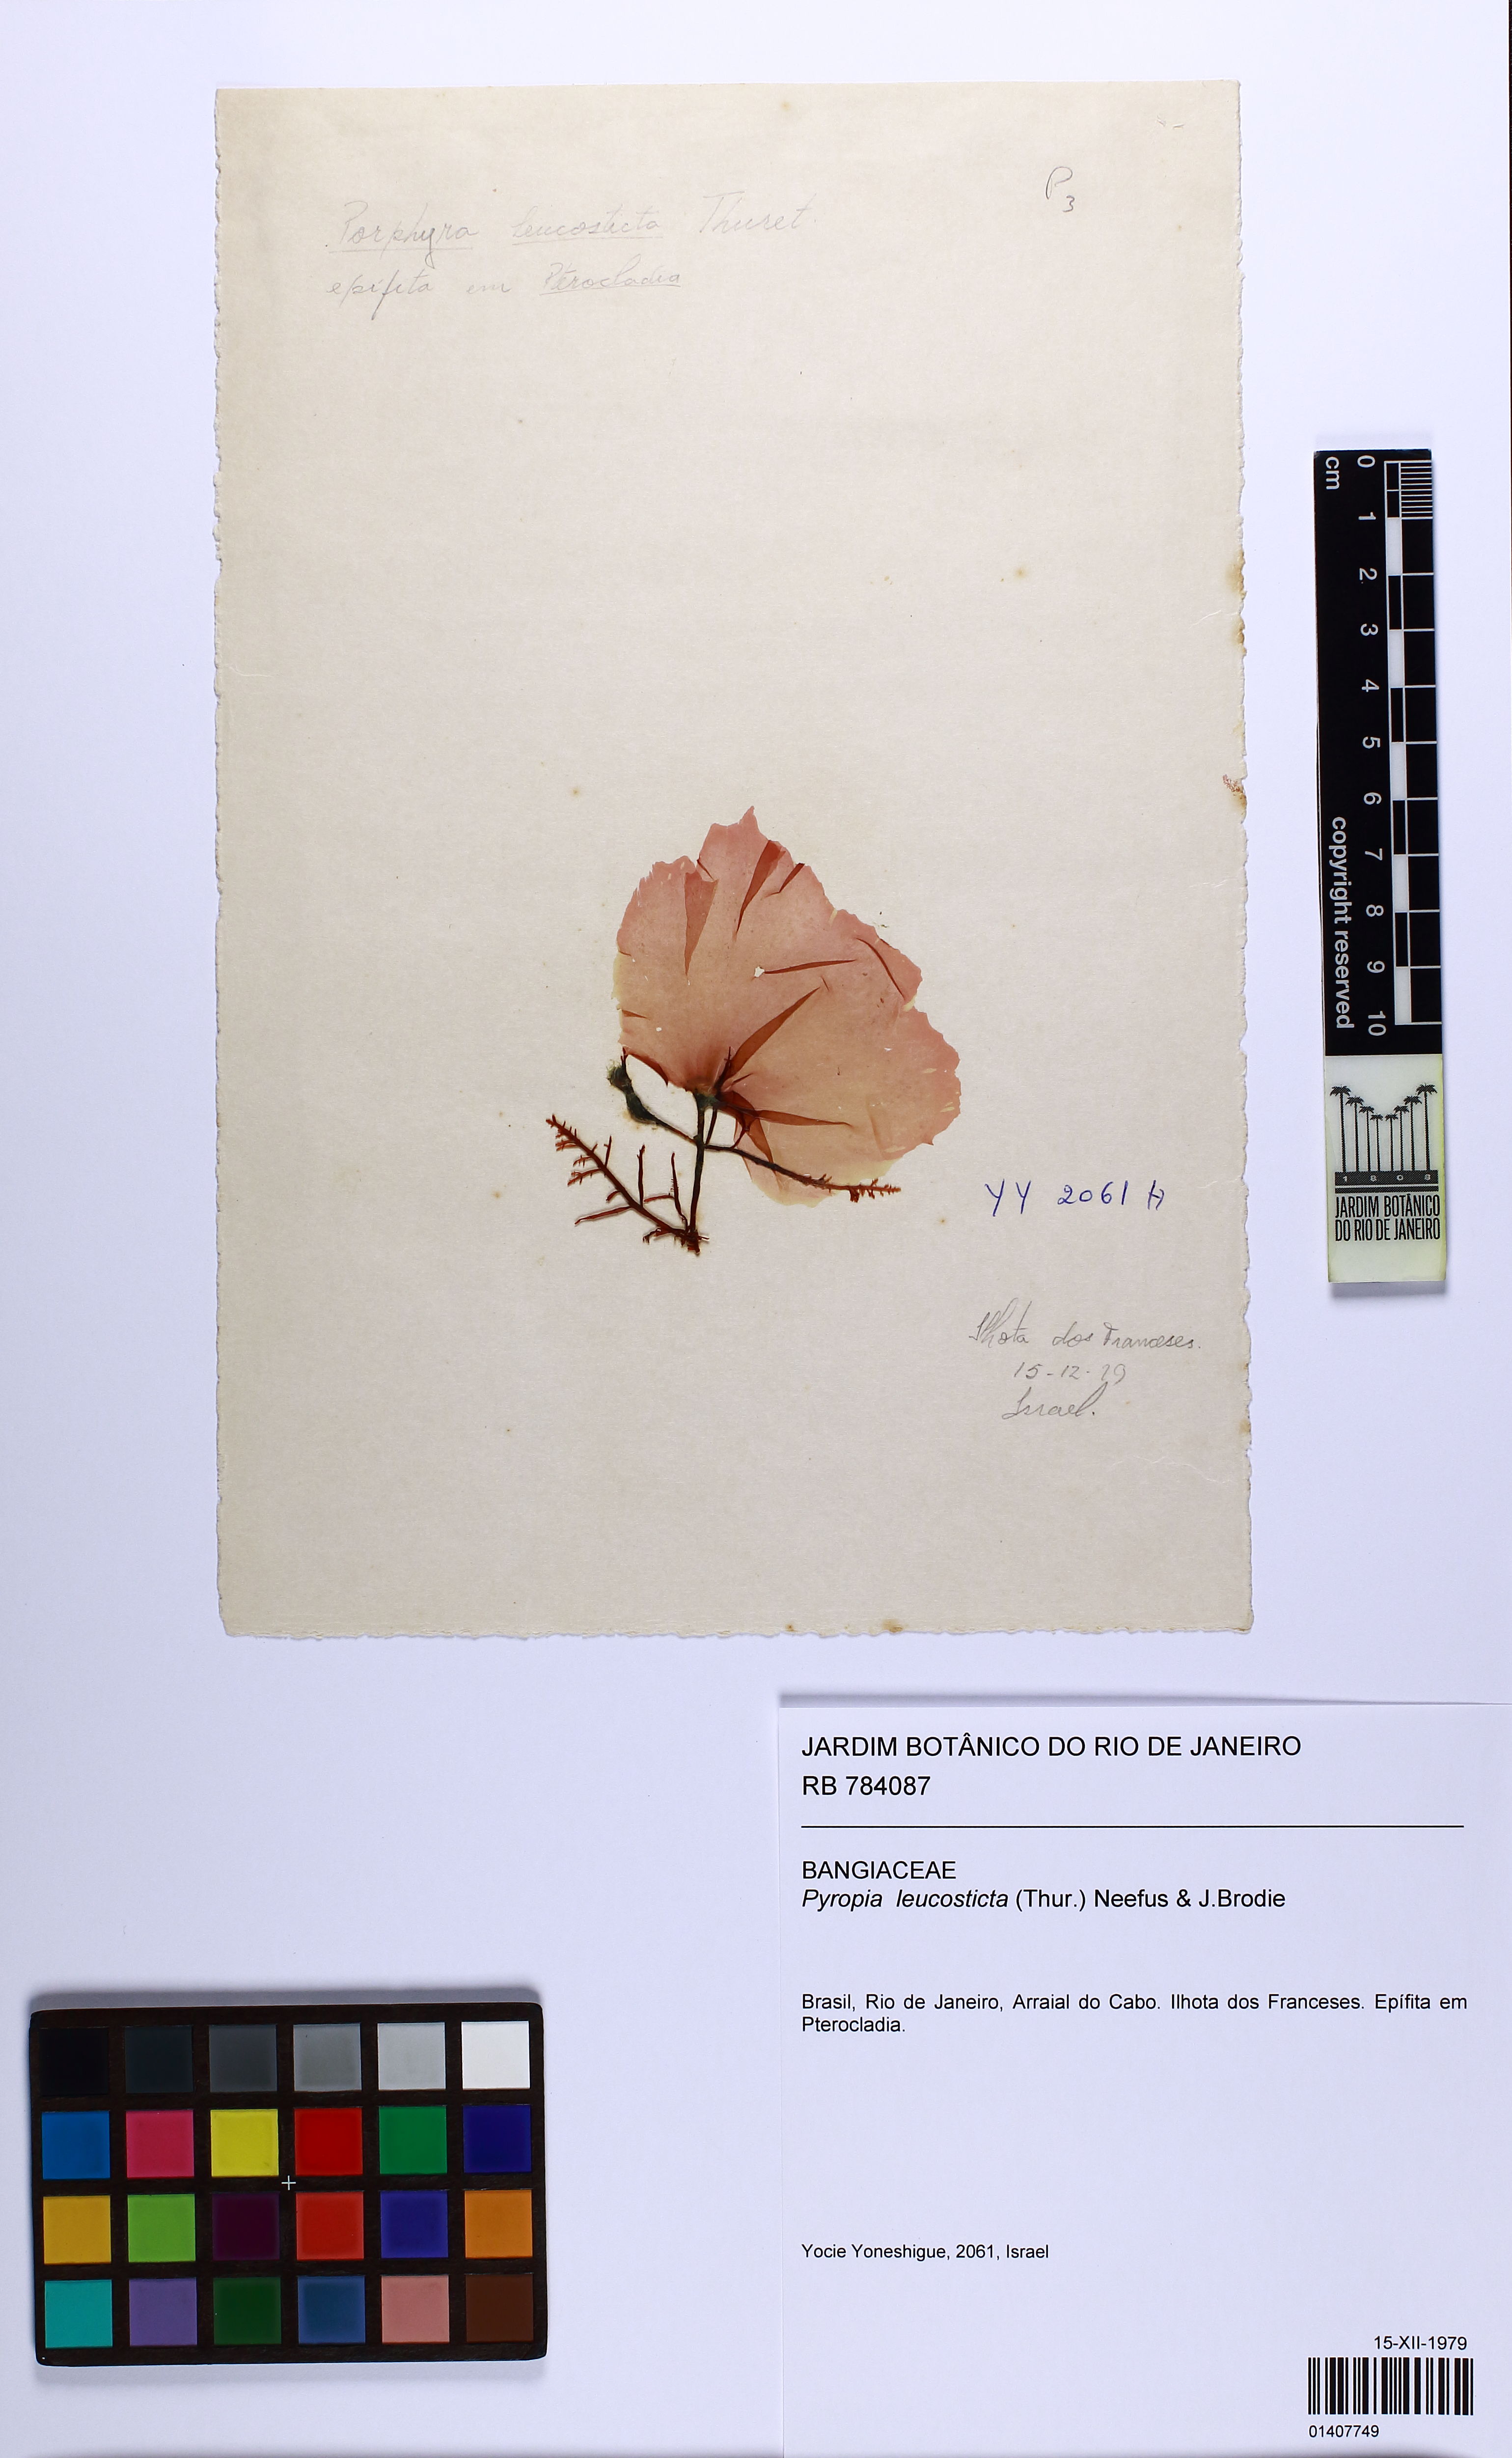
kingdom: Plantae
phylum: Rhodophyta
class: Bangiophyceae
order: Bangiales
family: Bangiaceae
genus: Neopyropia
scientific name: Neopyropia spec
